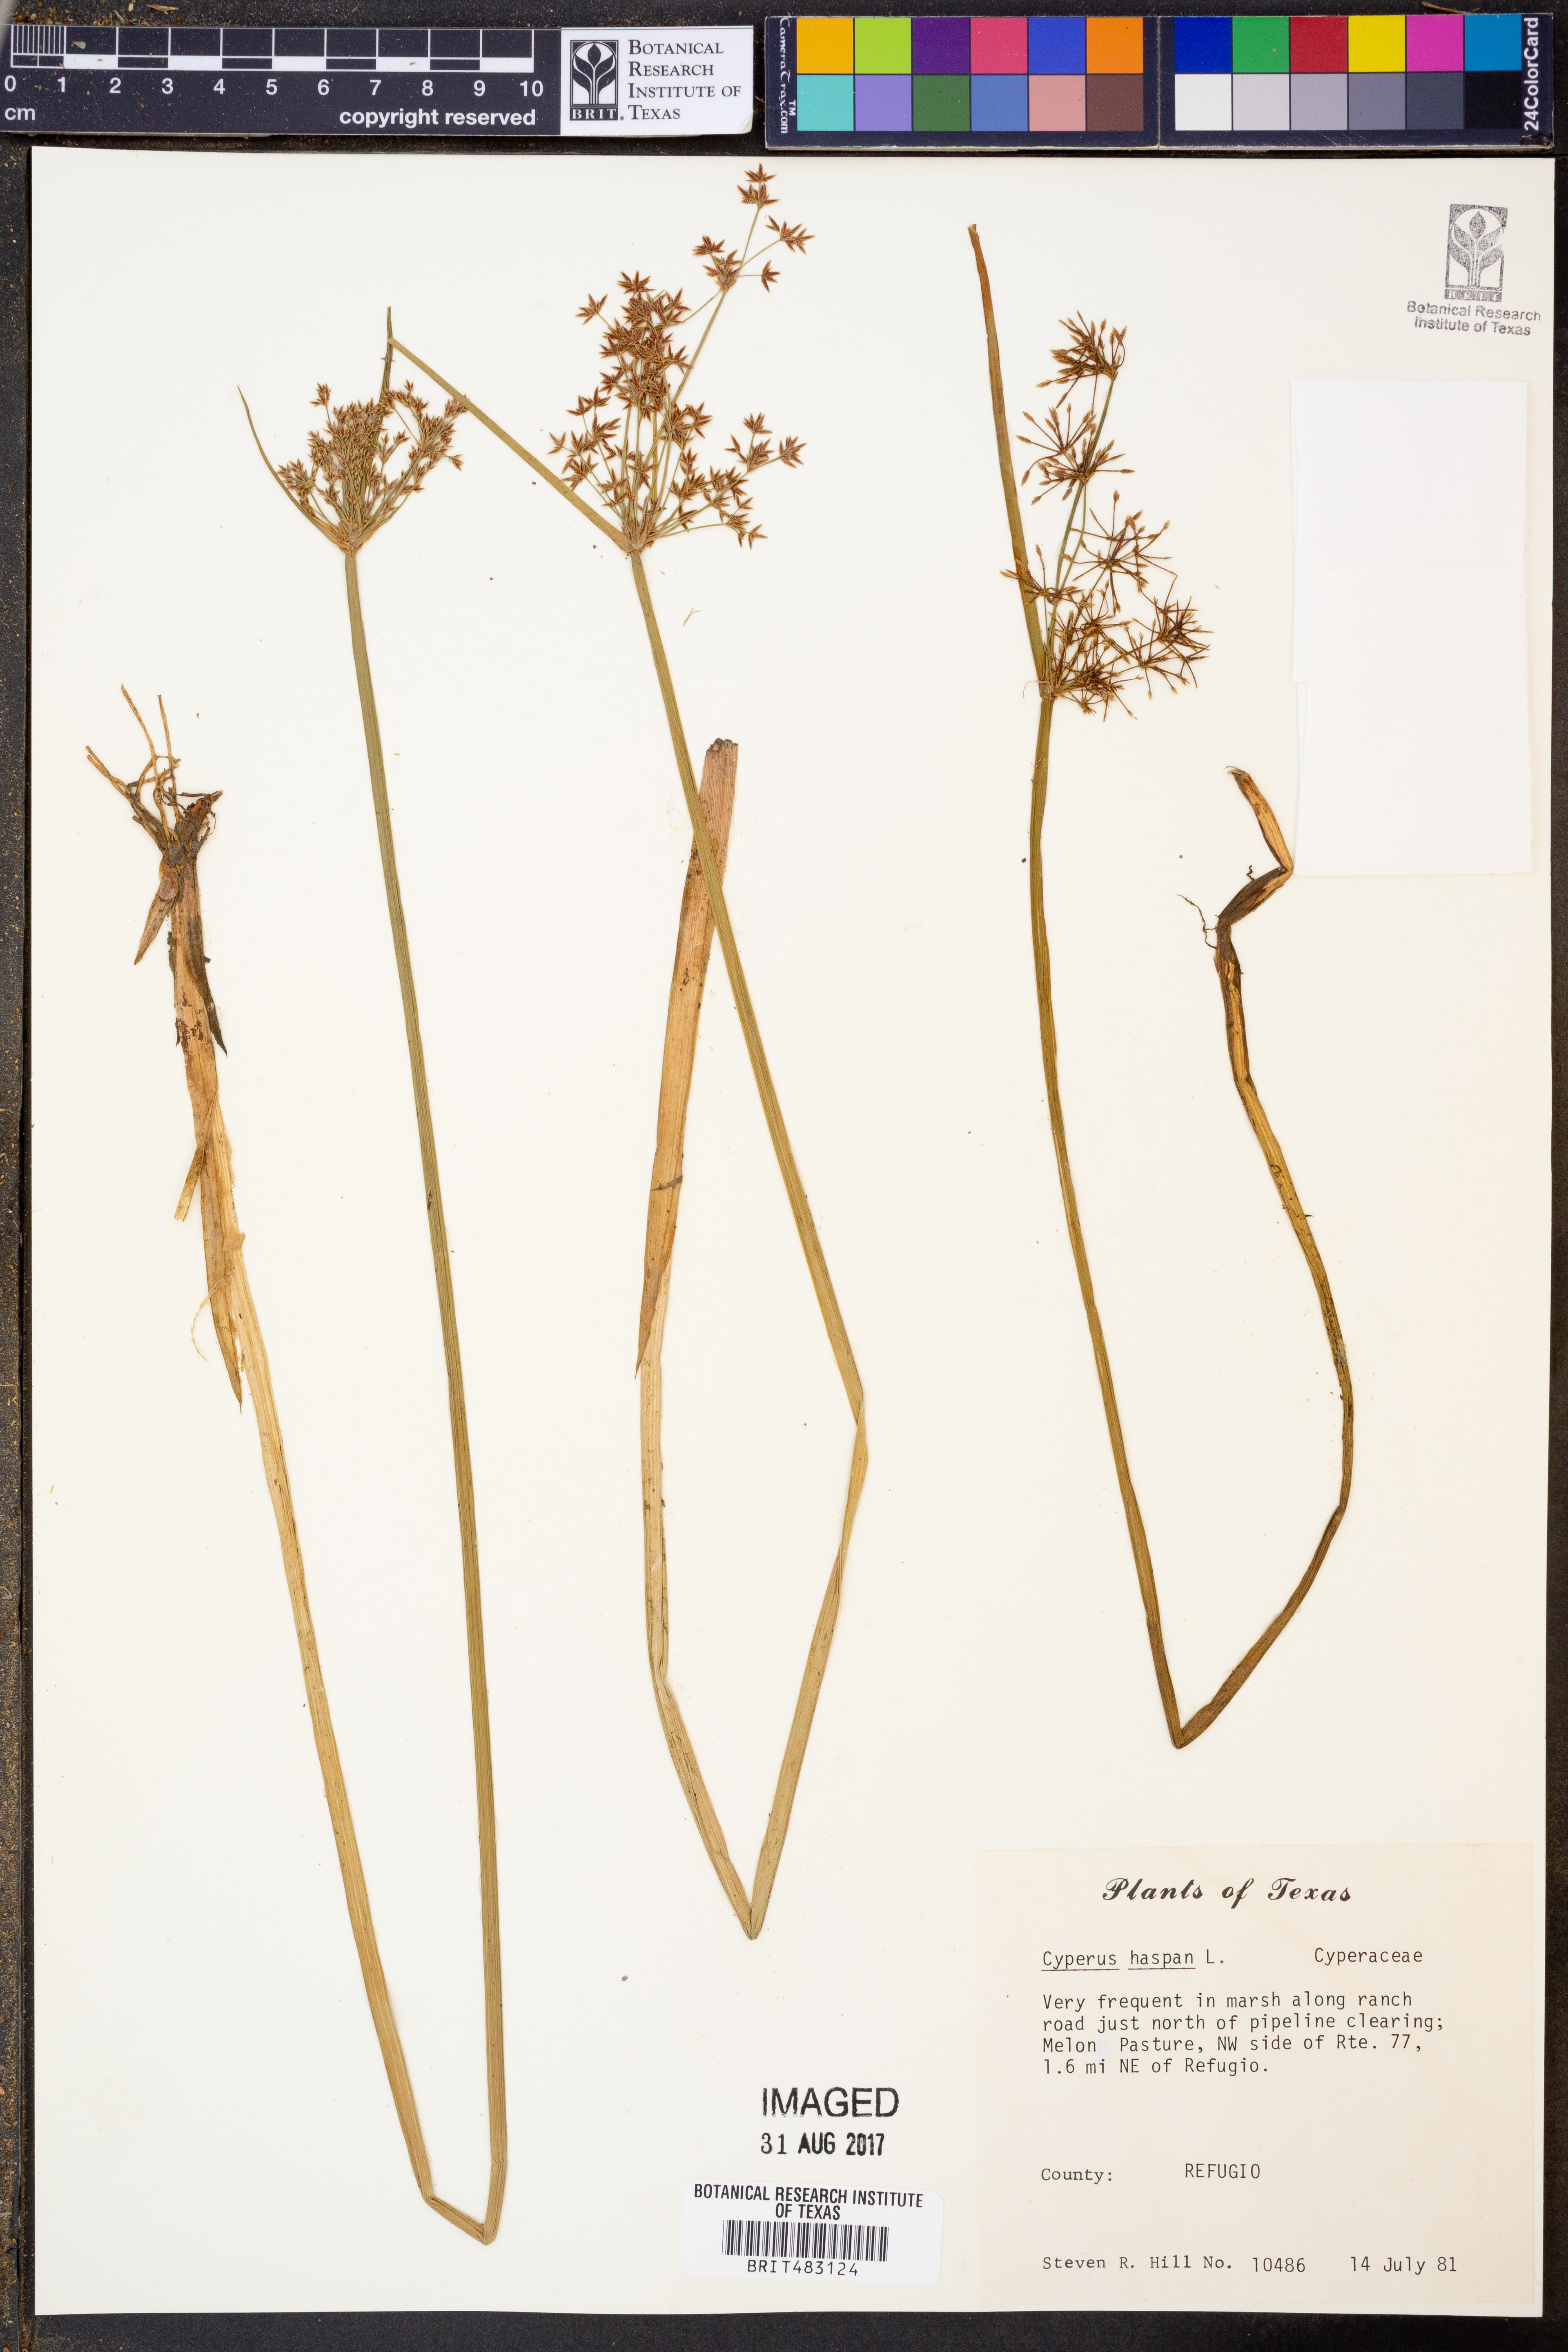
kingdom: Plantae
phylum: Tracheophyta
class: Liliopsida
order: Poales
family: Cyperaceae
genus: Cyperus
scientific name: Cyperus haspan
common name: Haspan flatsedge
